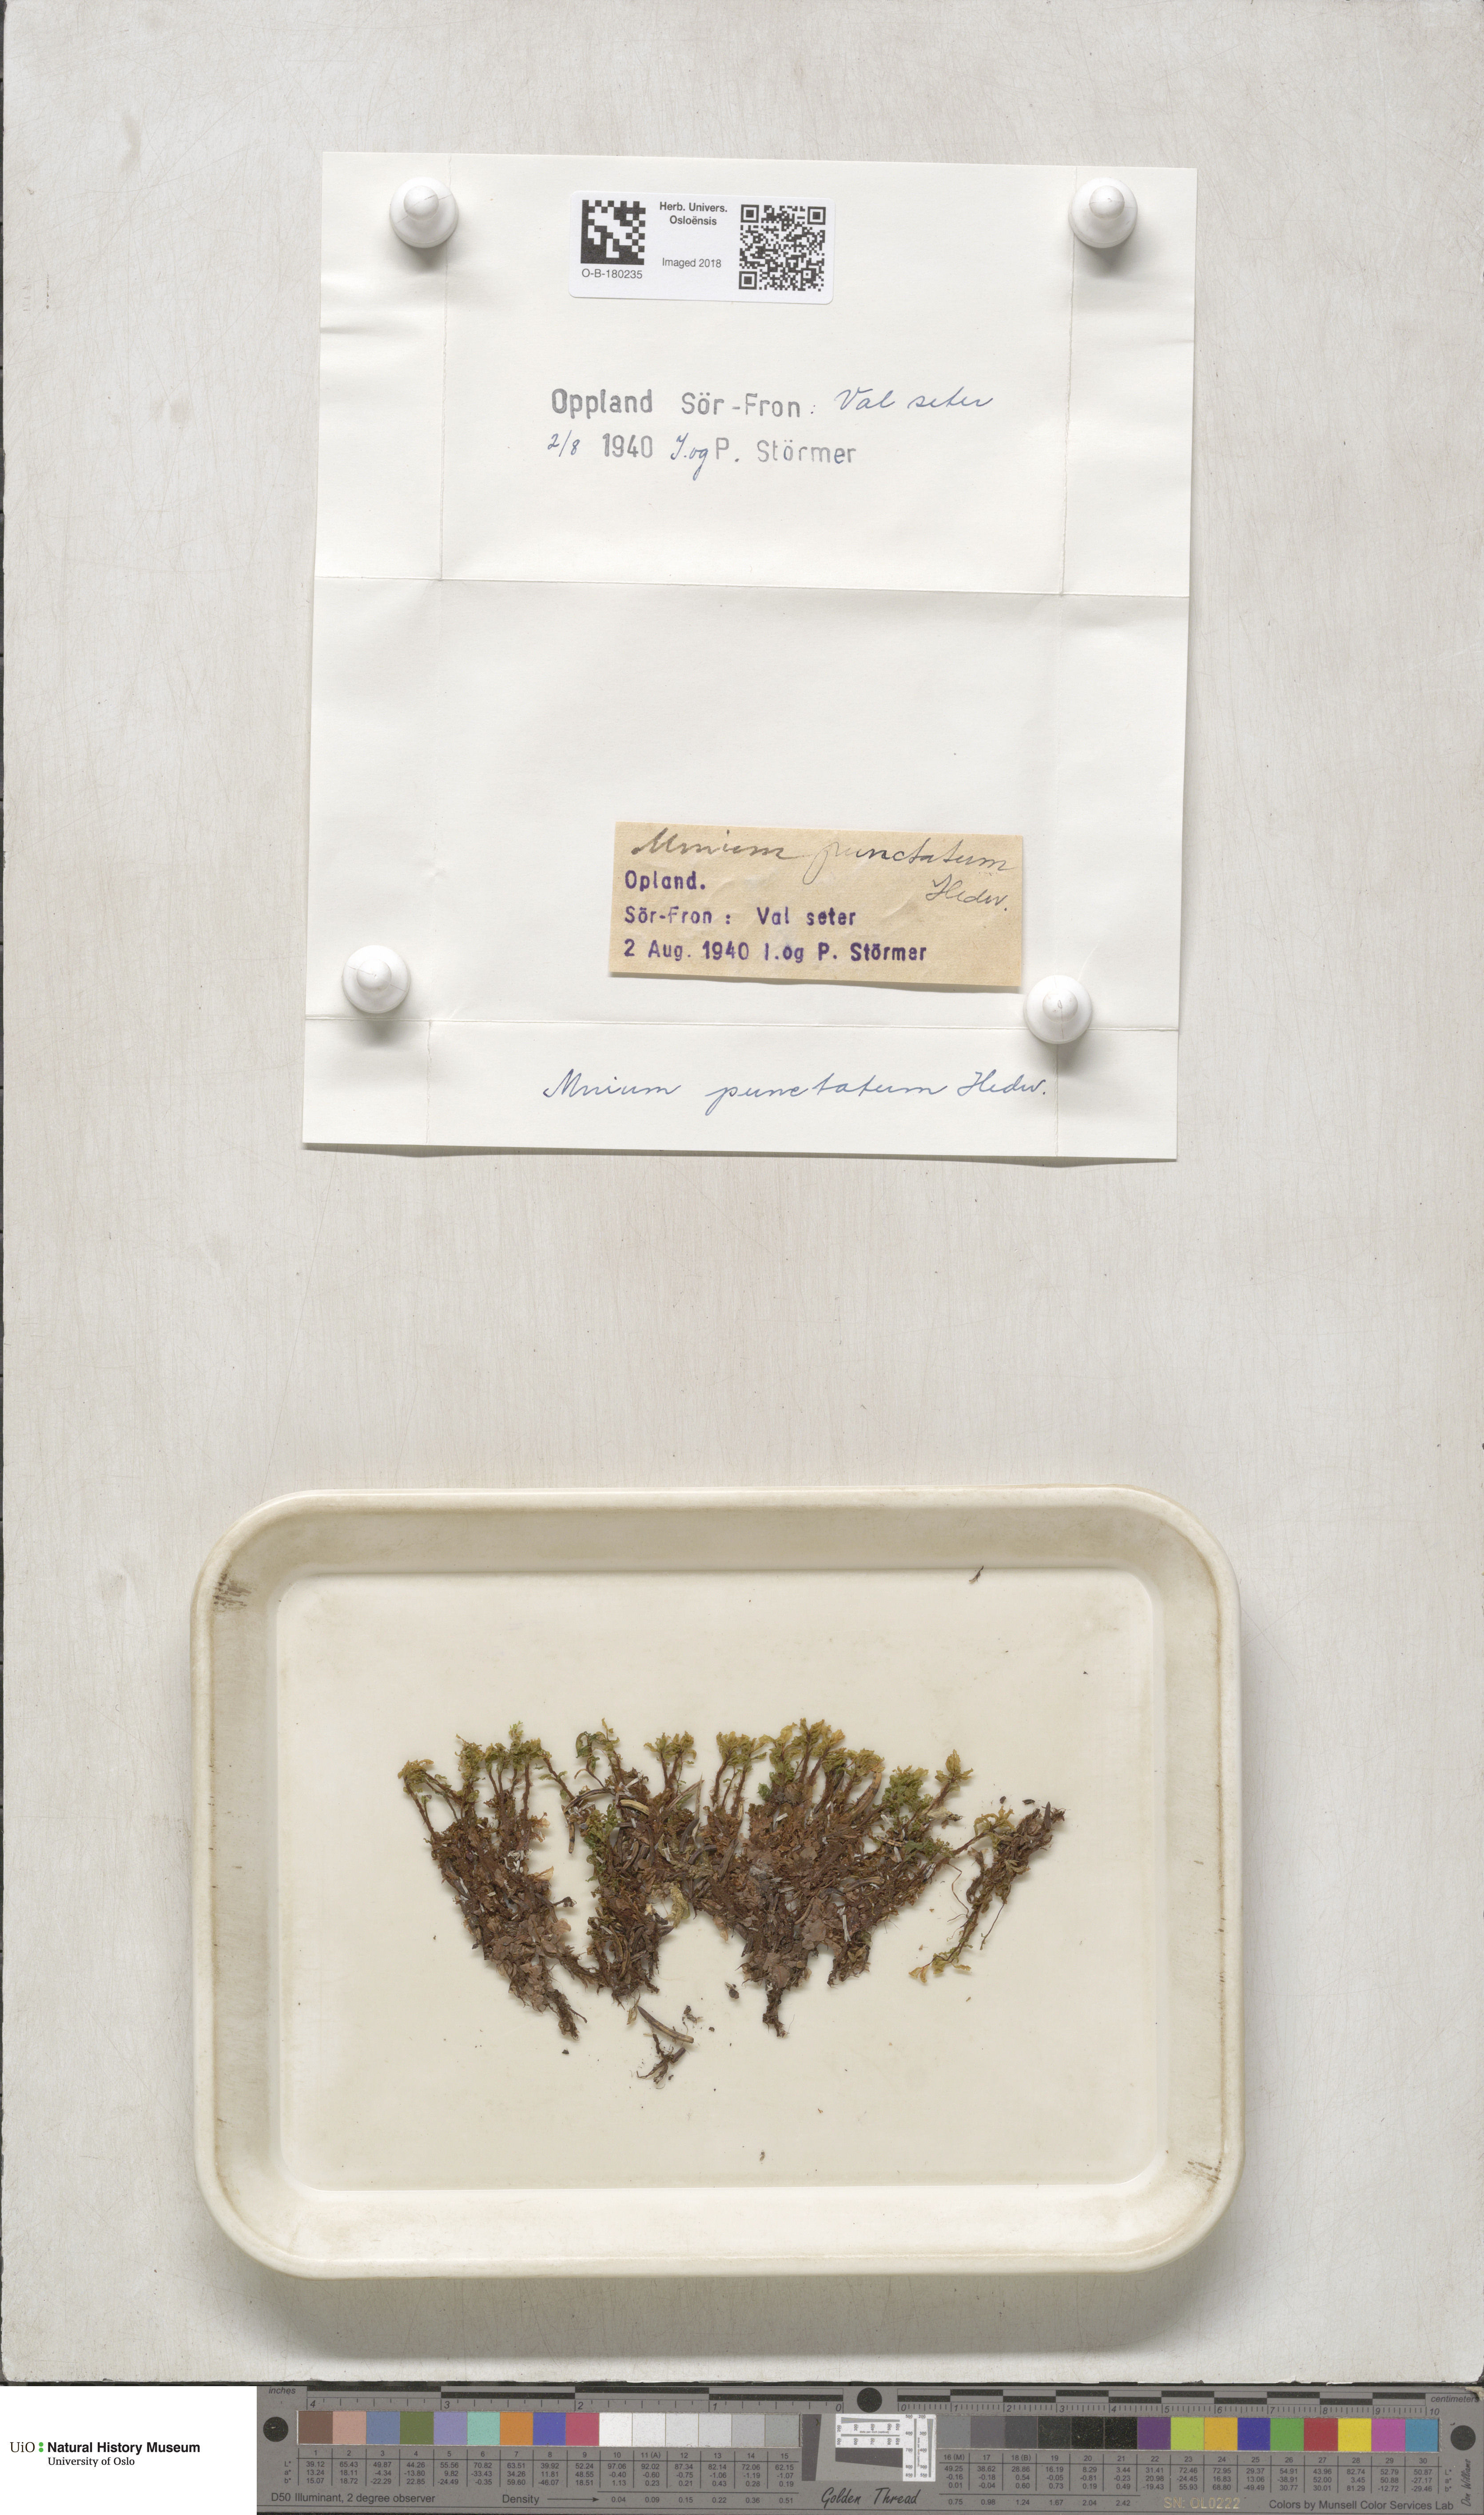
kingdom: Plantae
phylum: Bryophyta
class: Bryopsida
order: Bryales
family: Mniaceae
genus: Rhizomnium
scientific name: Rhizomnium punctatum
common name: Dotted leafy moss
